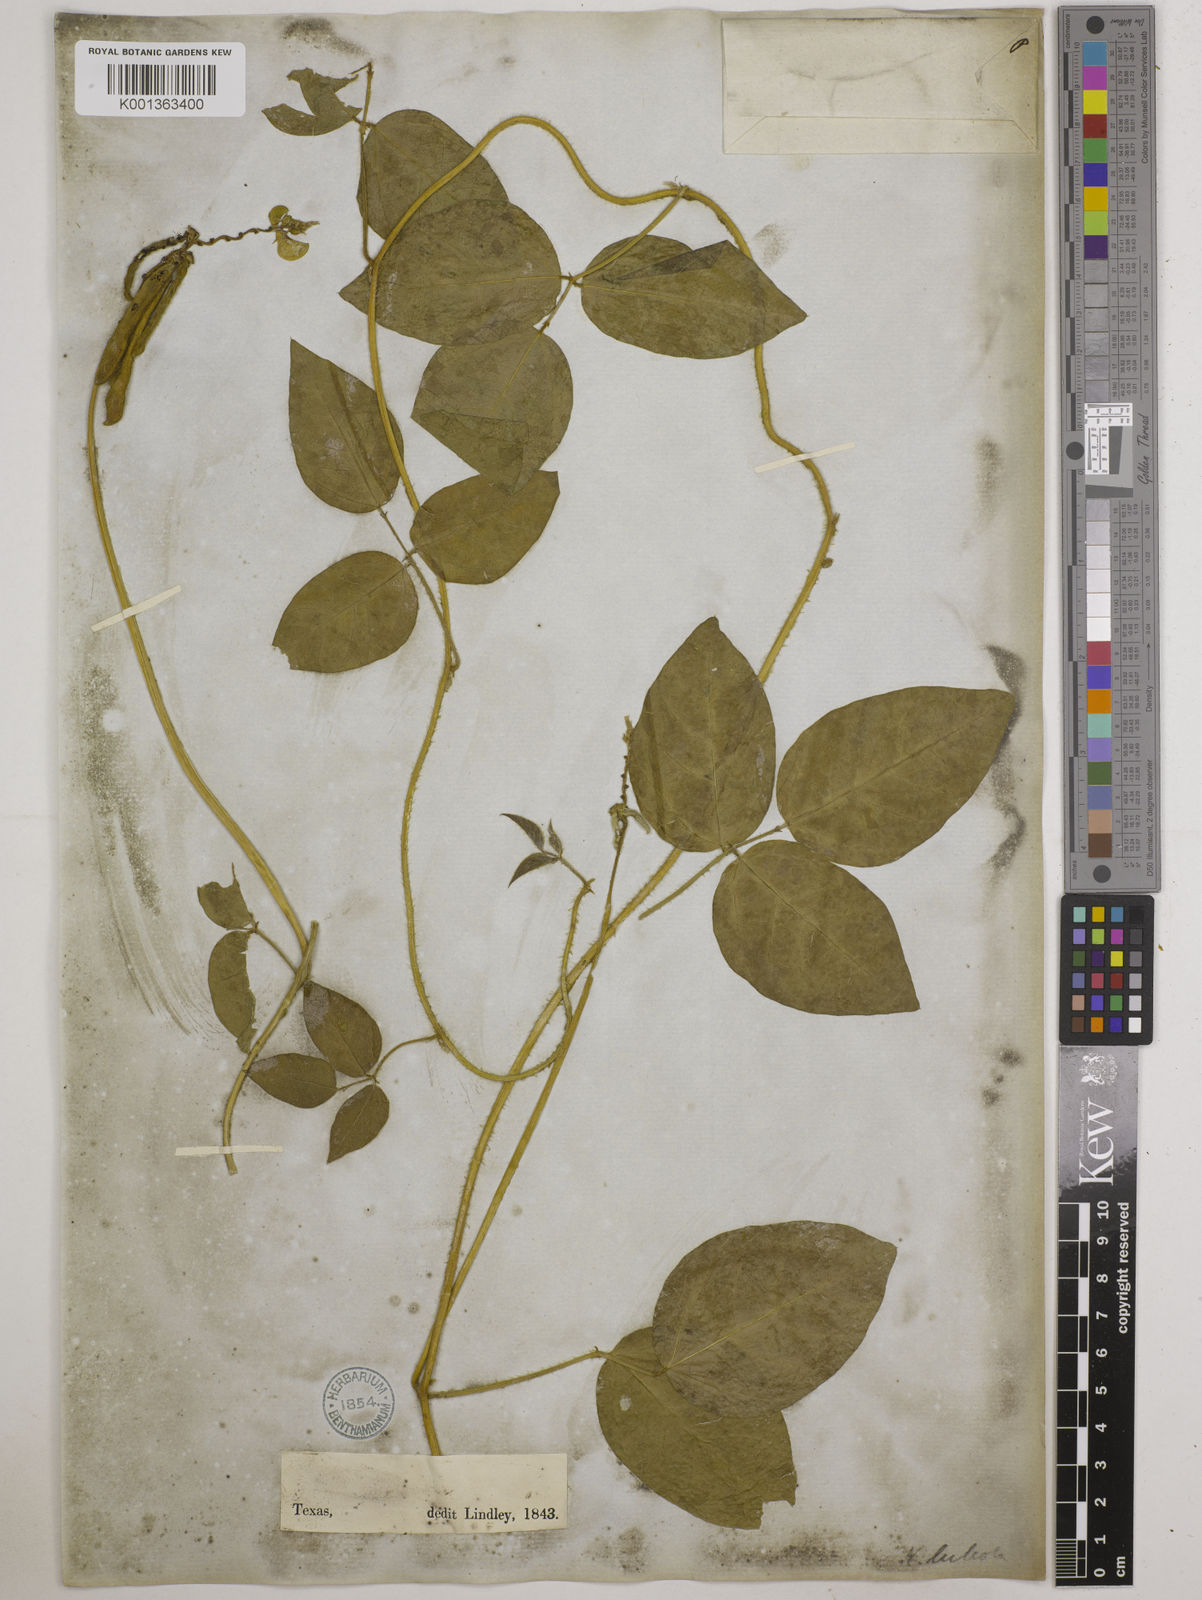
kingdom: Plantae
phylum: Tracheophyta
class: Magnoliopsida
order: Fabales
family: Fabaceae
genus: Vigna
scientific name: Vigna luteola
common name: Hairypod cowpea
